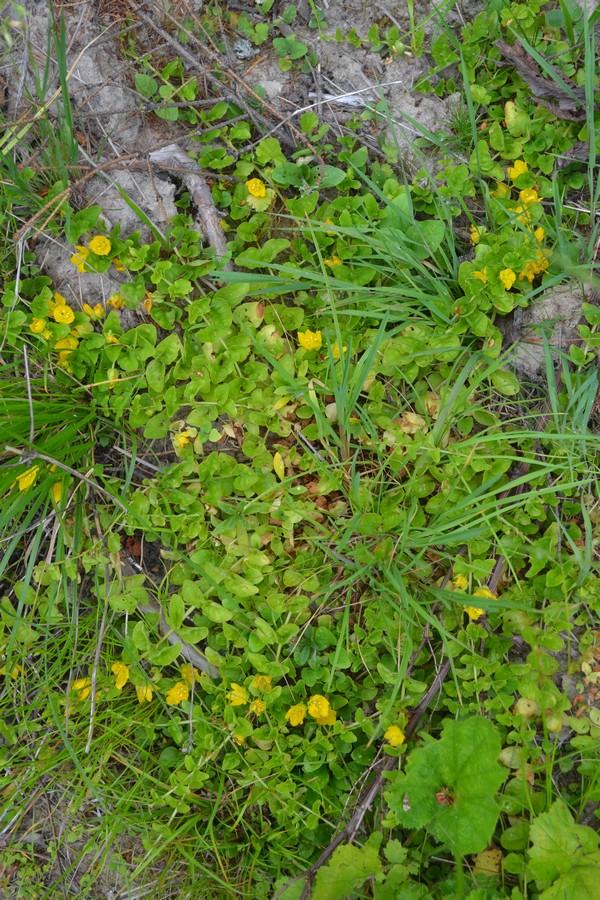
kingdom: Plantae
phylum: Tracheophyta
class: Magnoliopsida
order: Ericales
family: Primulaceae
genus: Lysimachia
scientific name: Lysimachia nummularia
